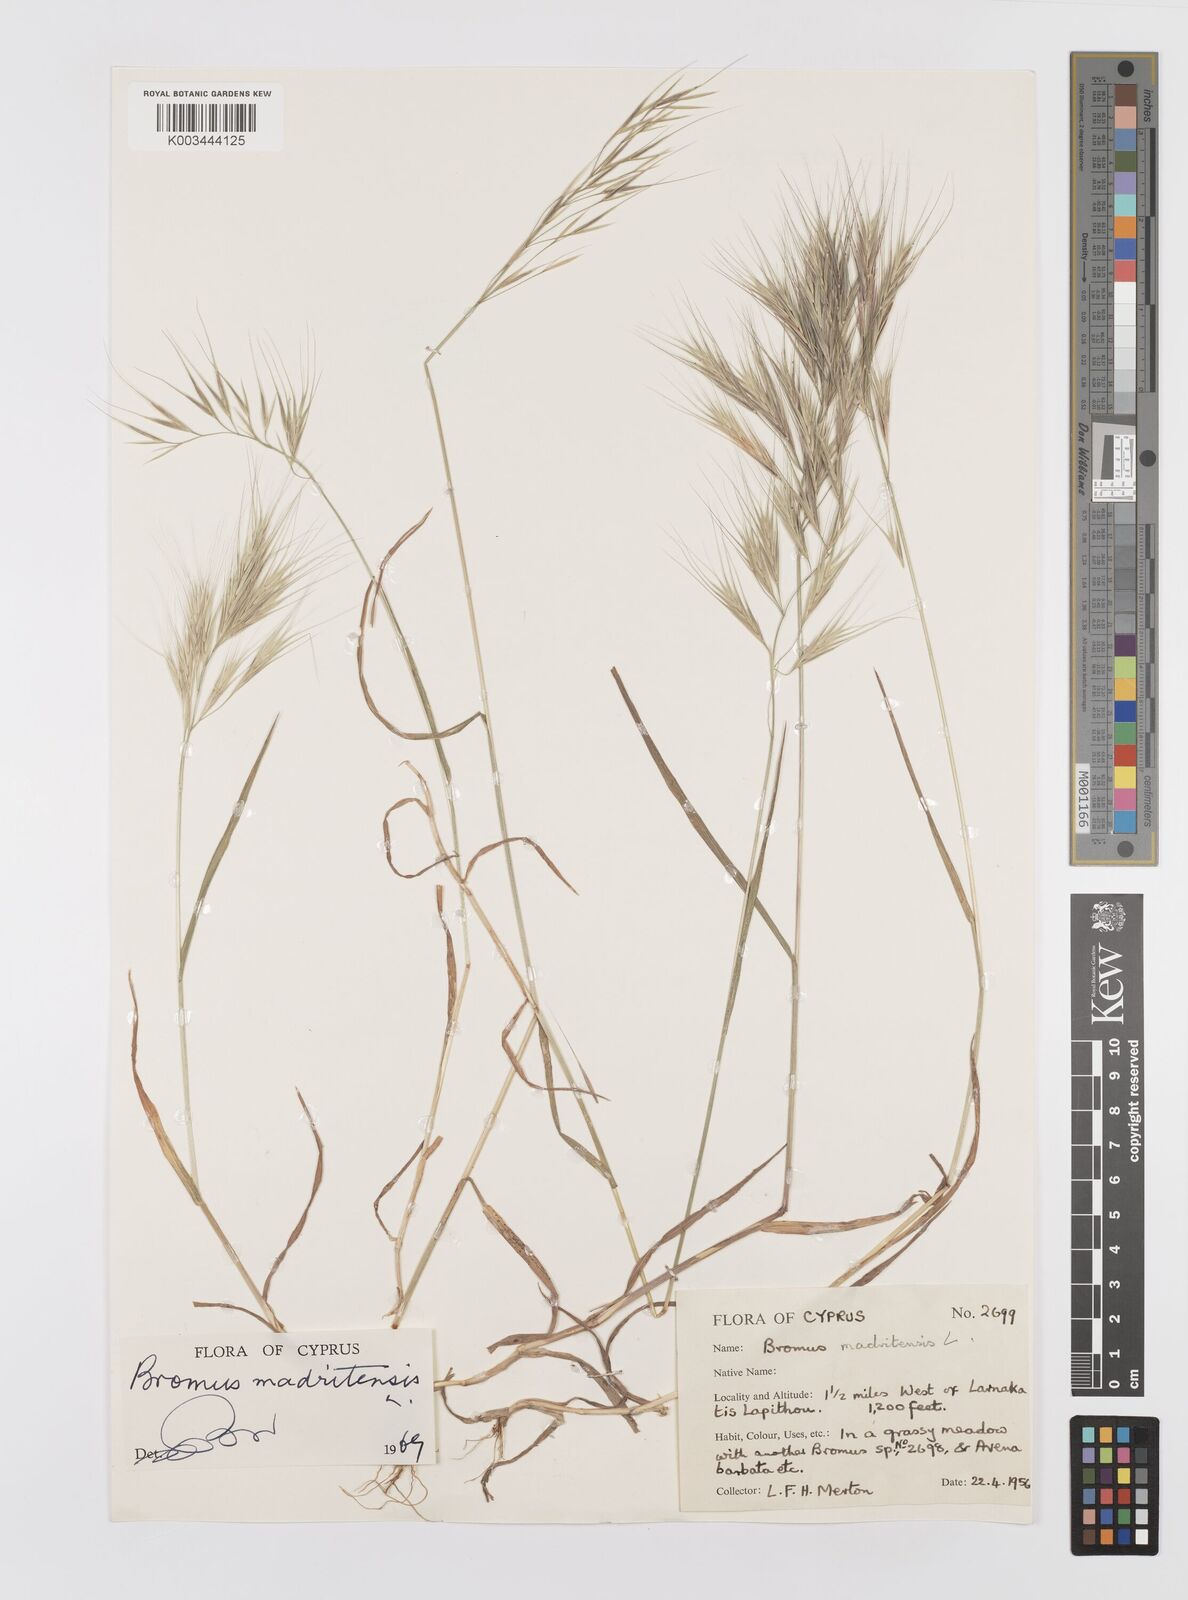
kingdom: Plantae
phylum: Tracheophyta
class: Liliopsida
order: Poales
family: Poaceae
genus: Bromus
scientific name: Bromus madritensis
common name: Compact brome
